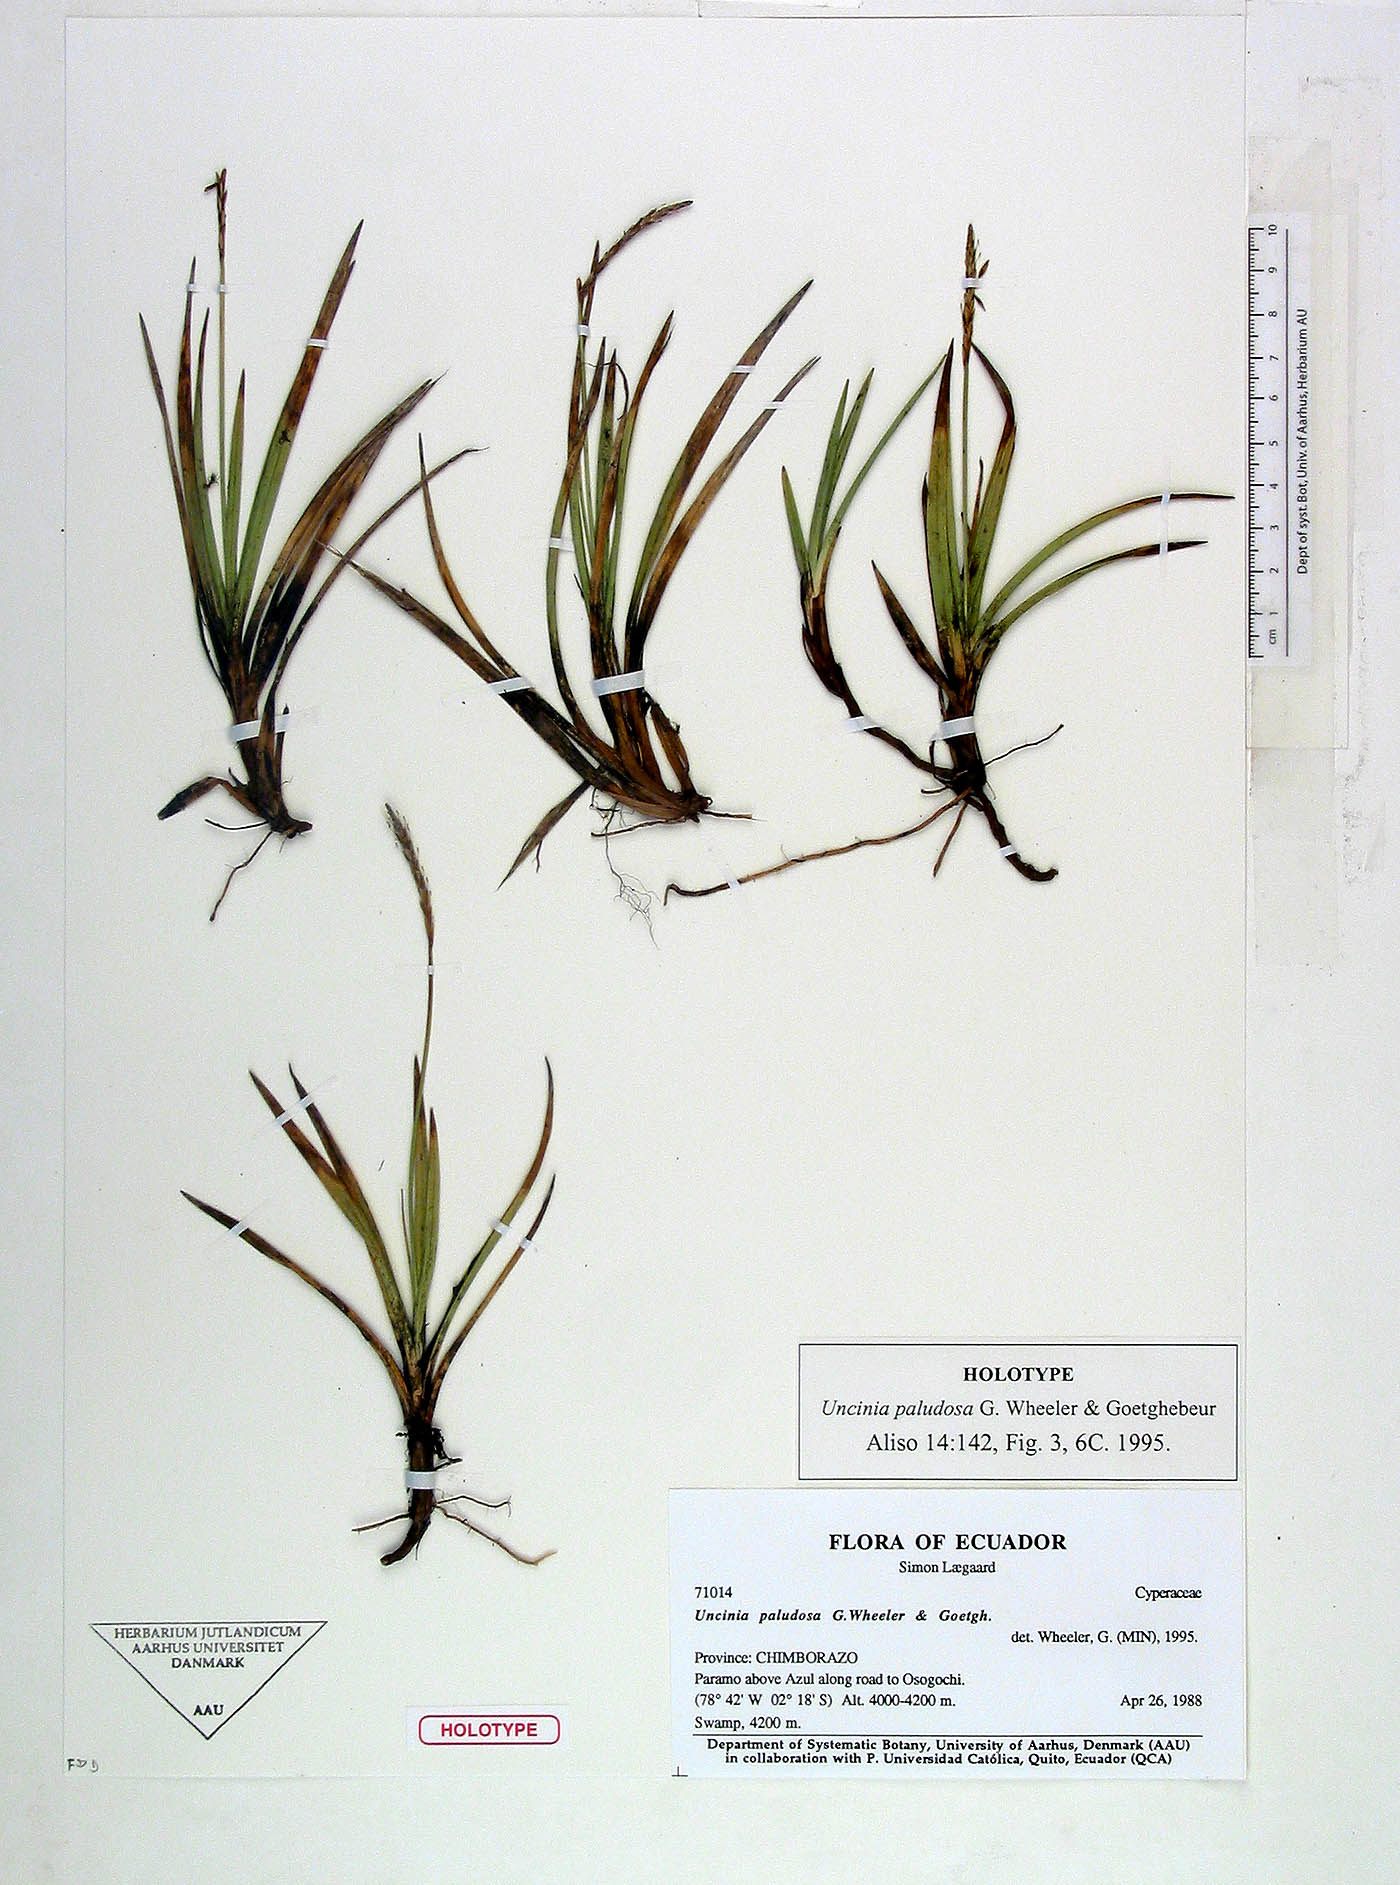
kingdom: Plantae
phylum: Tracheophyta
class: Liliopsida
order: Poales
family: Cyperaceae
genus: Carex
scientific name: Carex laegaardii
